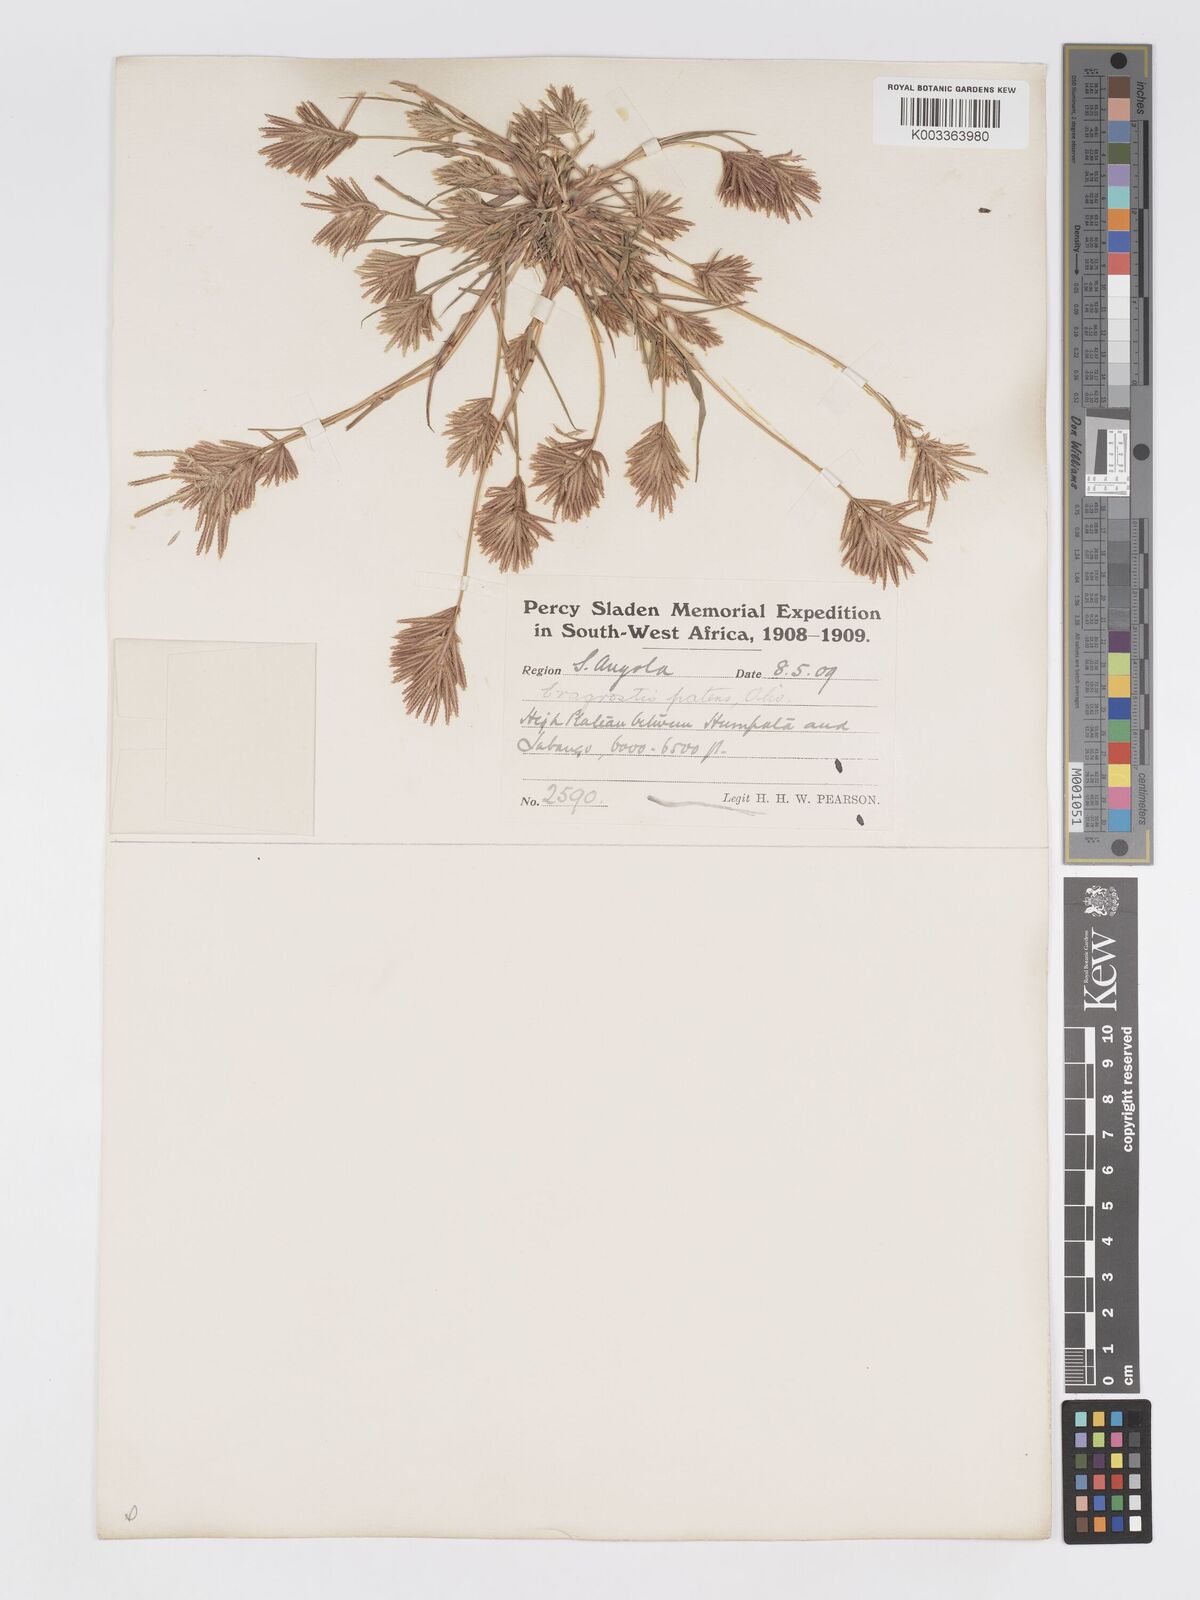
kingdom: Plantae
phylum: Tracheophyta
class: Liliopsida
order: Poales
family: Poaceae
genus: Eragrostis
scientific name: Eragrostis patens
